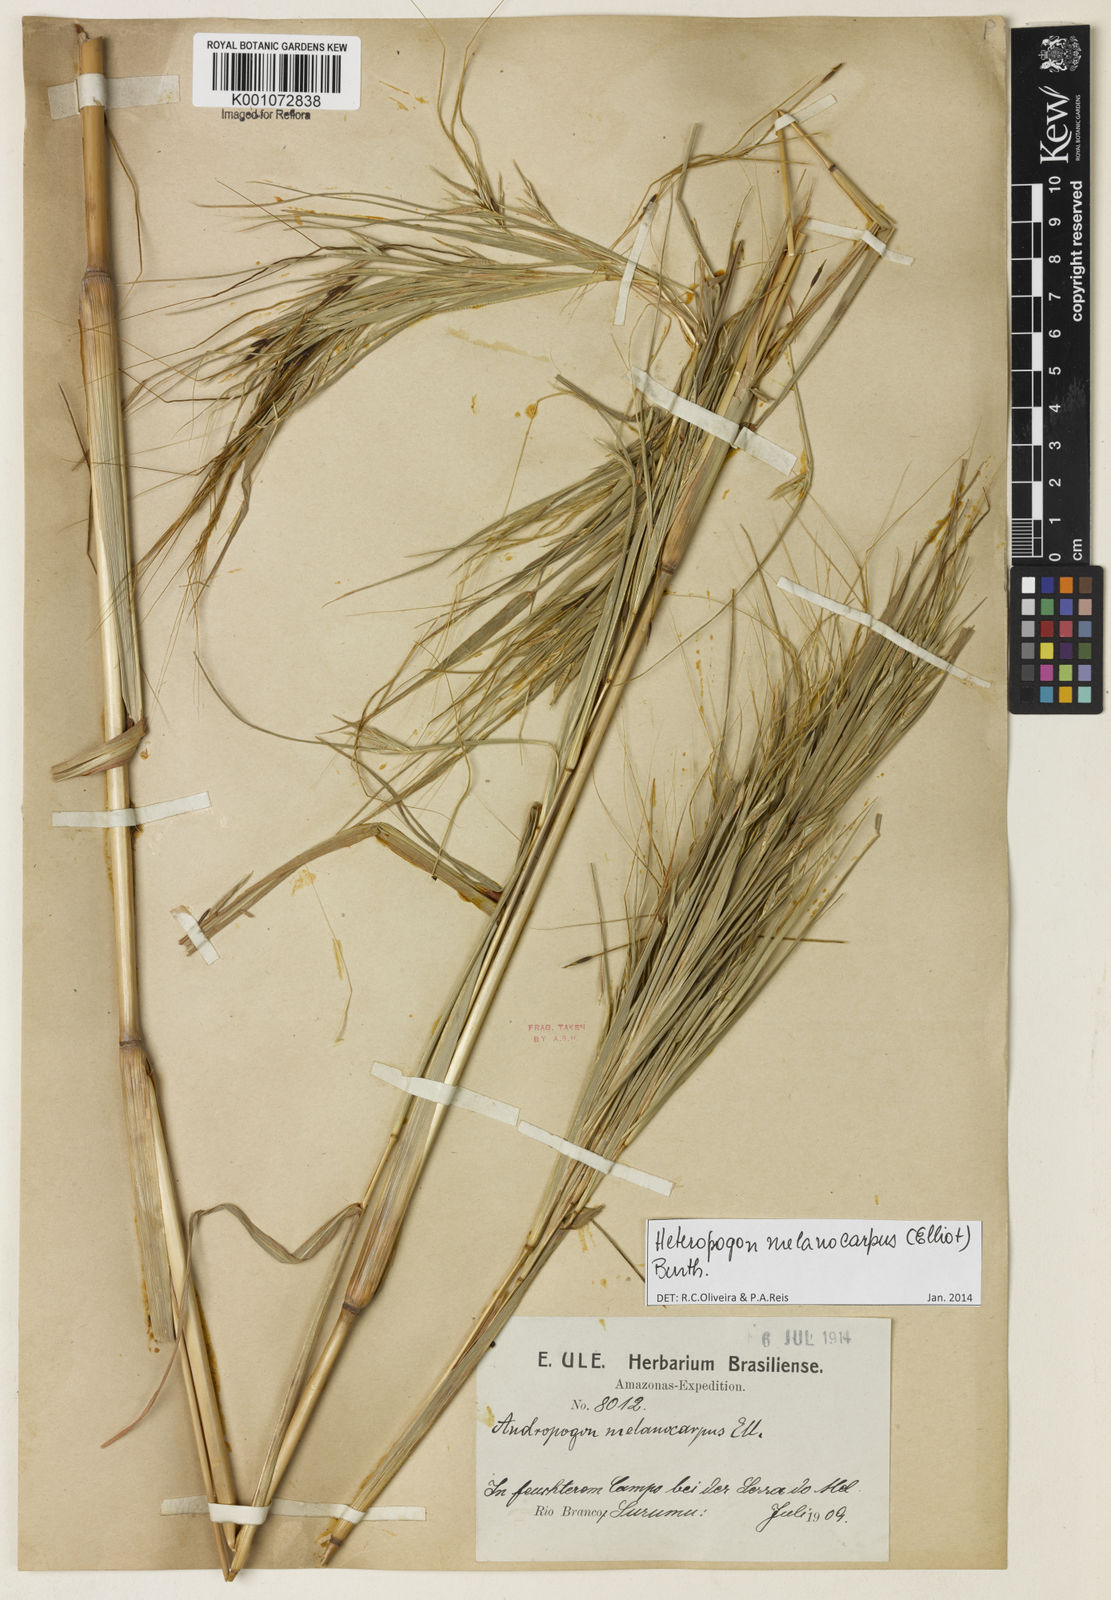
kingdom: Plantae
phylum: Tracheophyta
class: Liliopsida
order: Poales
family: Poaceae
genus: Heteropogon
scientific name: Heteropogon melanocarpus
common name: Sweet tanglehead
